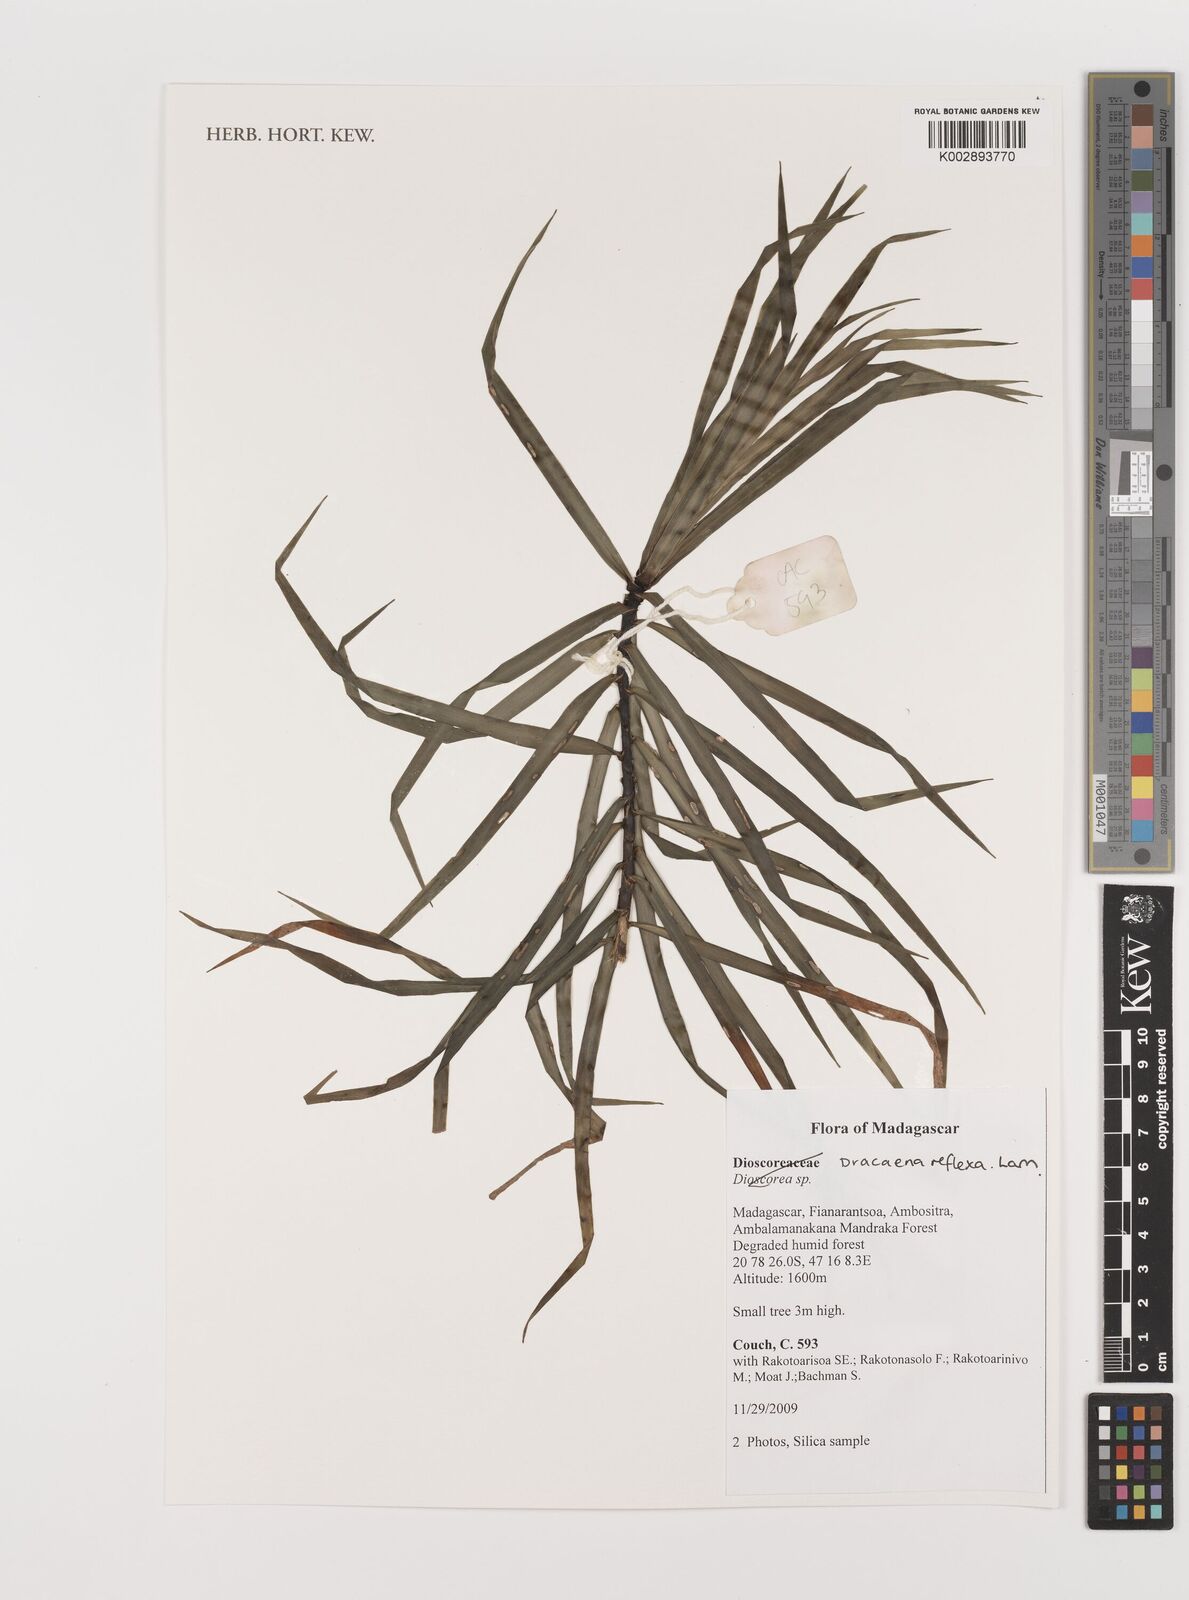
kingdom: Plantae
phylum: Tracheophyta
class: Liliopsida
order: Asparagales
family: Asparagaceae
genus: Dracaena
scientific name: Dracaena reflexa
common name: Song-of-india
